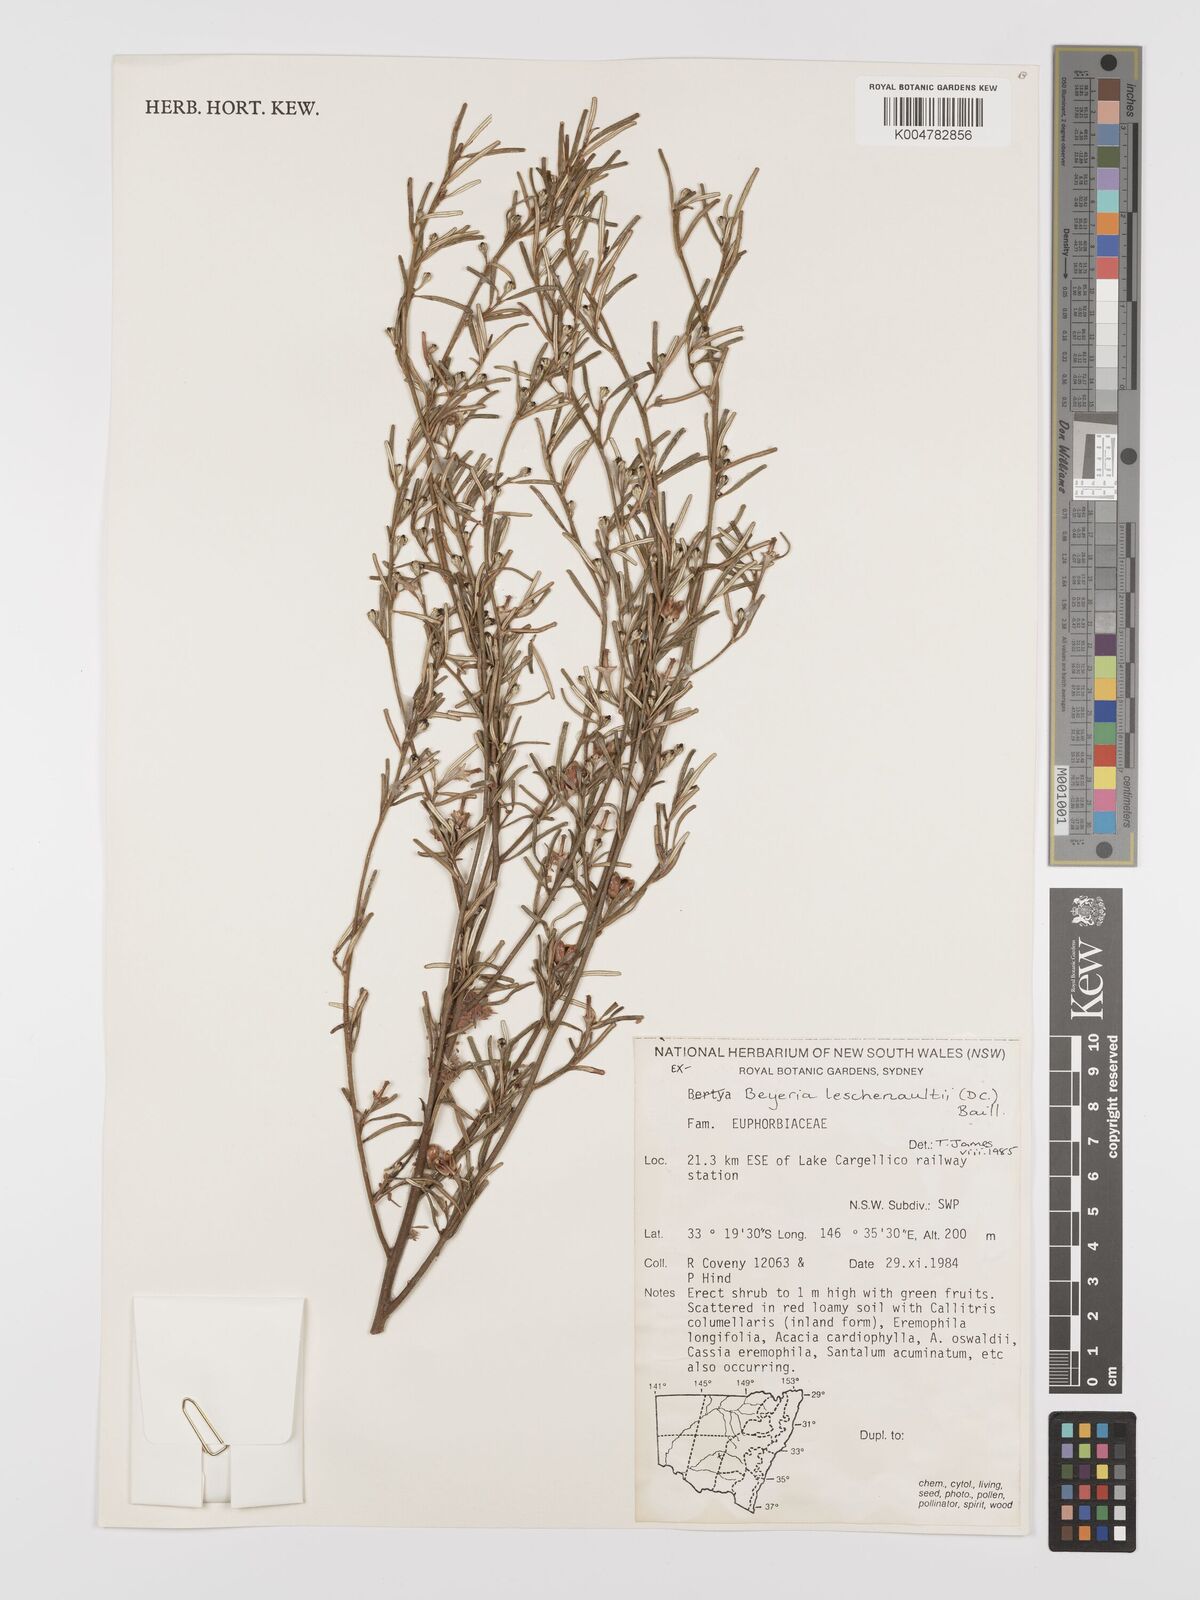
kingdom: Plantae
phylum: Tracheophyta
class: Magnoliopsida
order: Malpighiales
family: Euphorbiaceae
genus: Beyeria
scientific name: Beyeria lechenaultii
